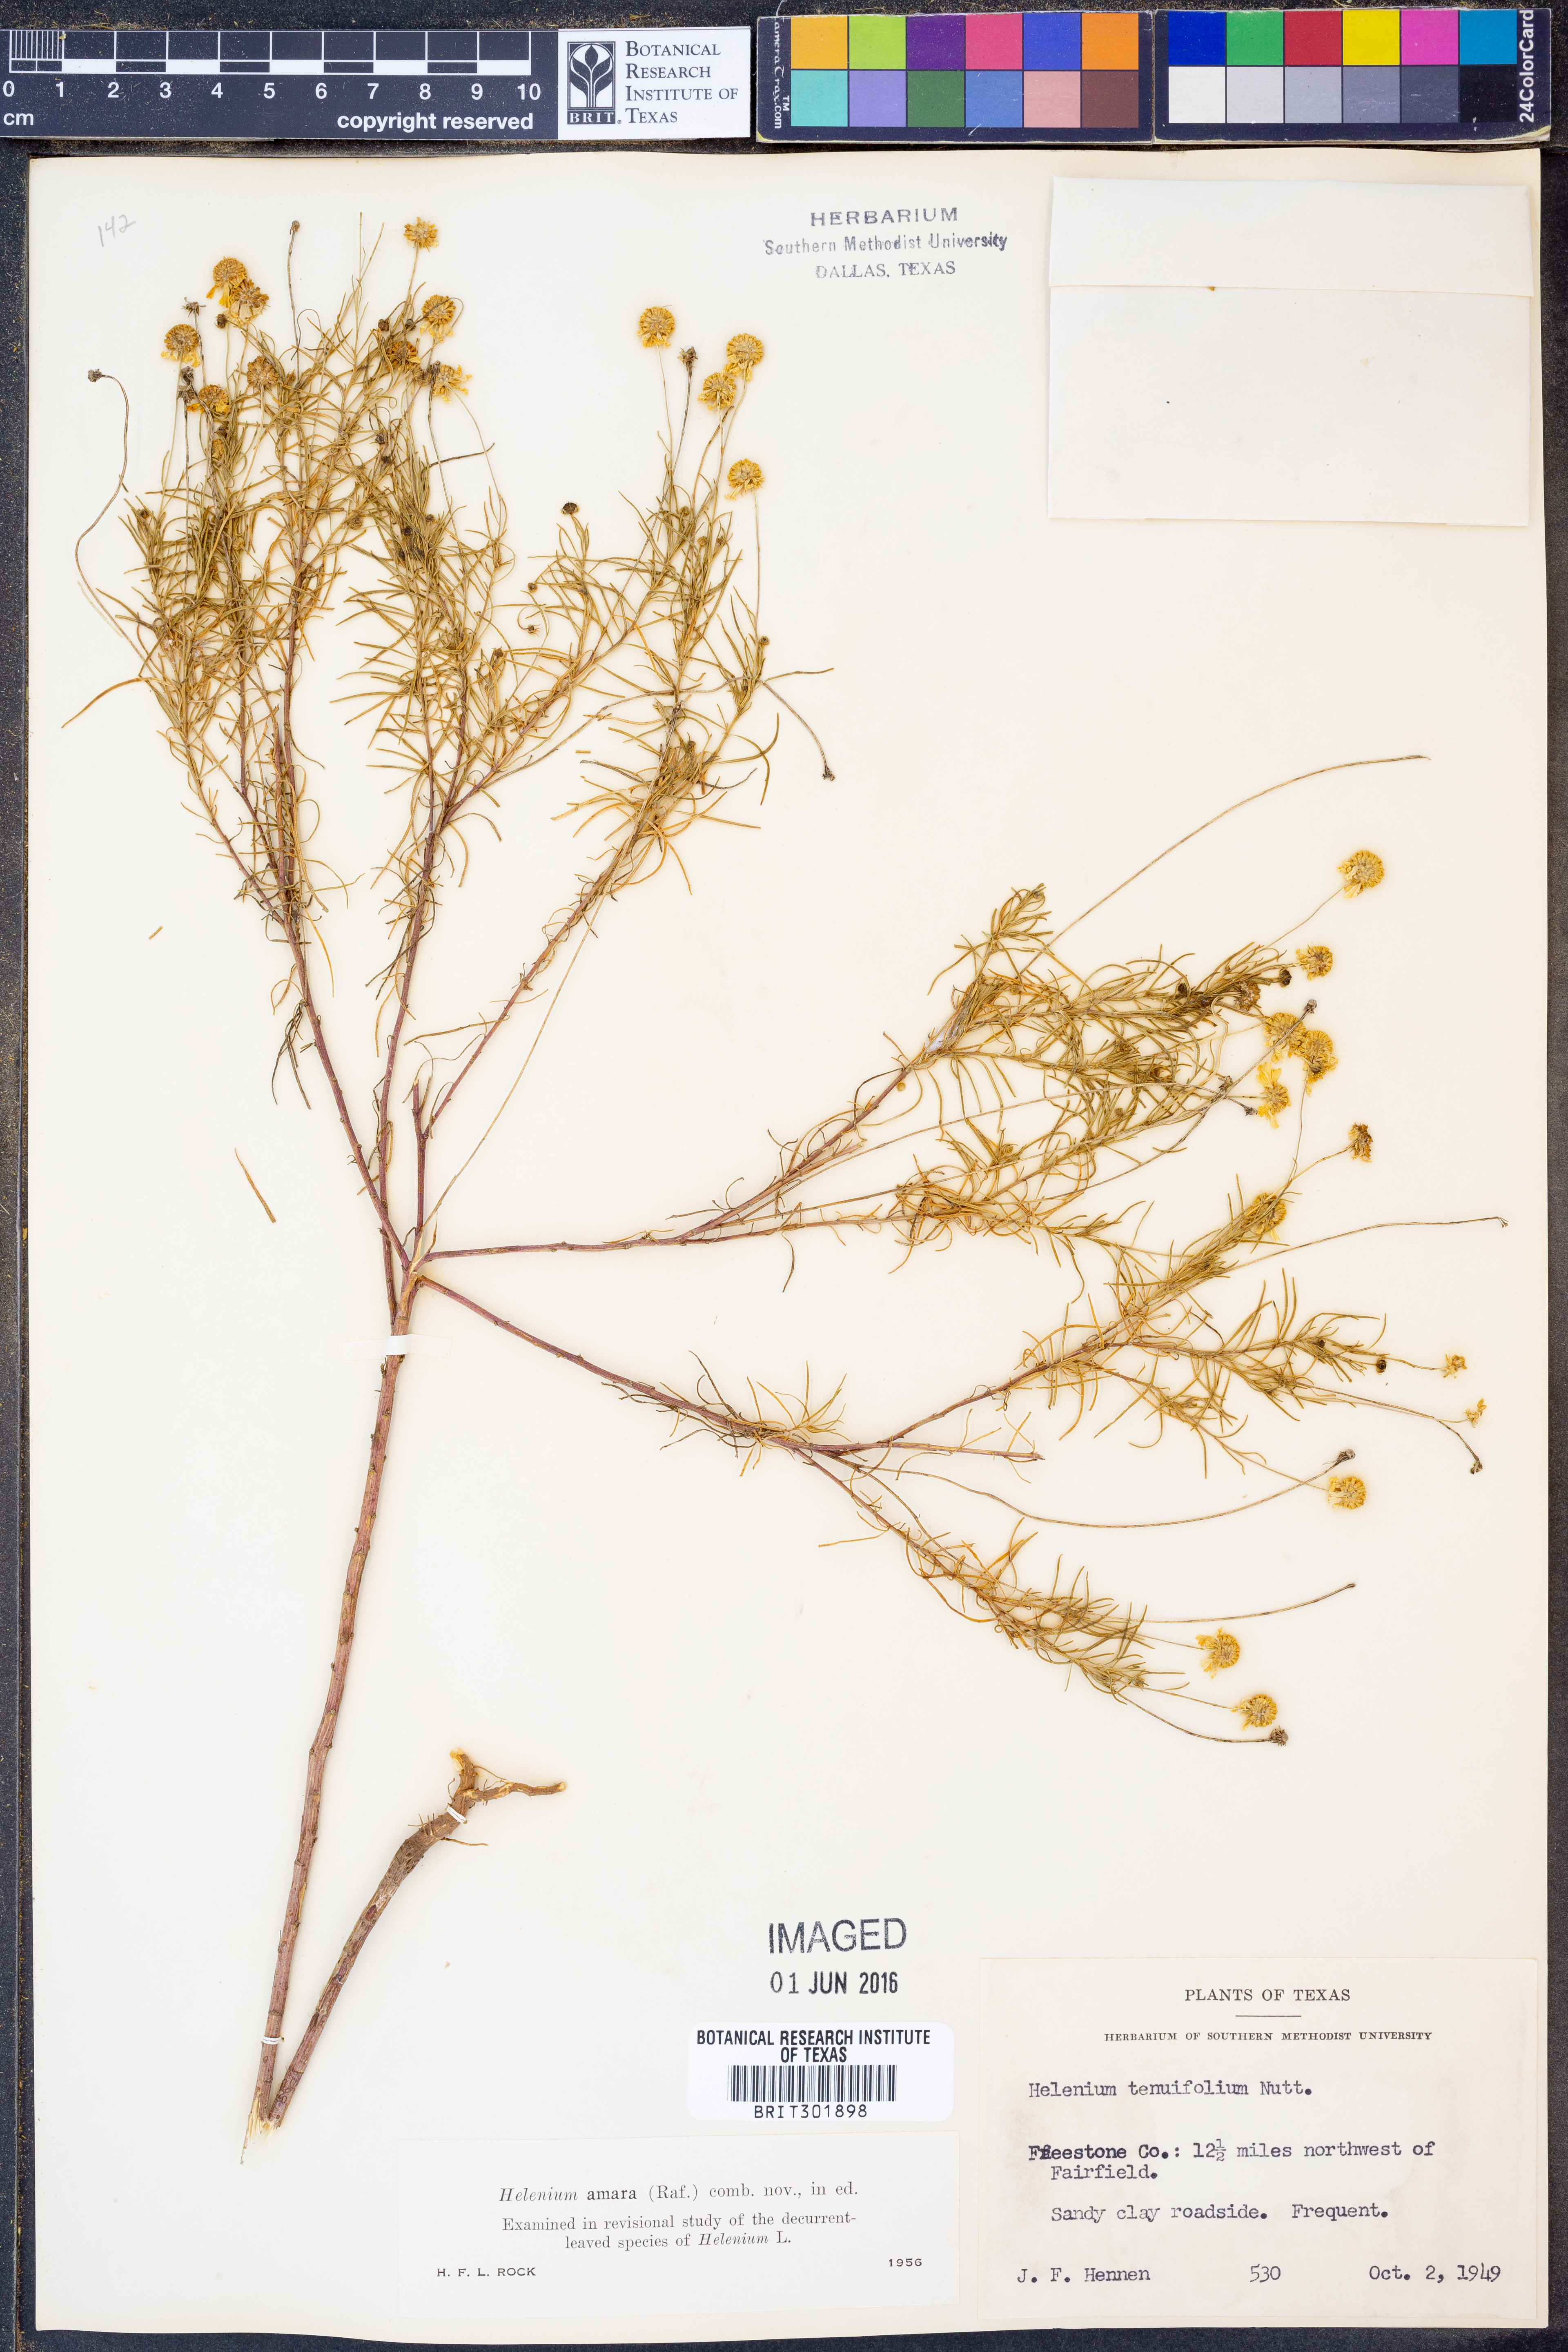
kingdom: Plantae
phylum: Tracheophyta
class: Magnoliopsida
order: Asterales
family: Asteraceae
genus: Helenium
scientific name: Helenium amarum
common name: Bitter sneezeweed
